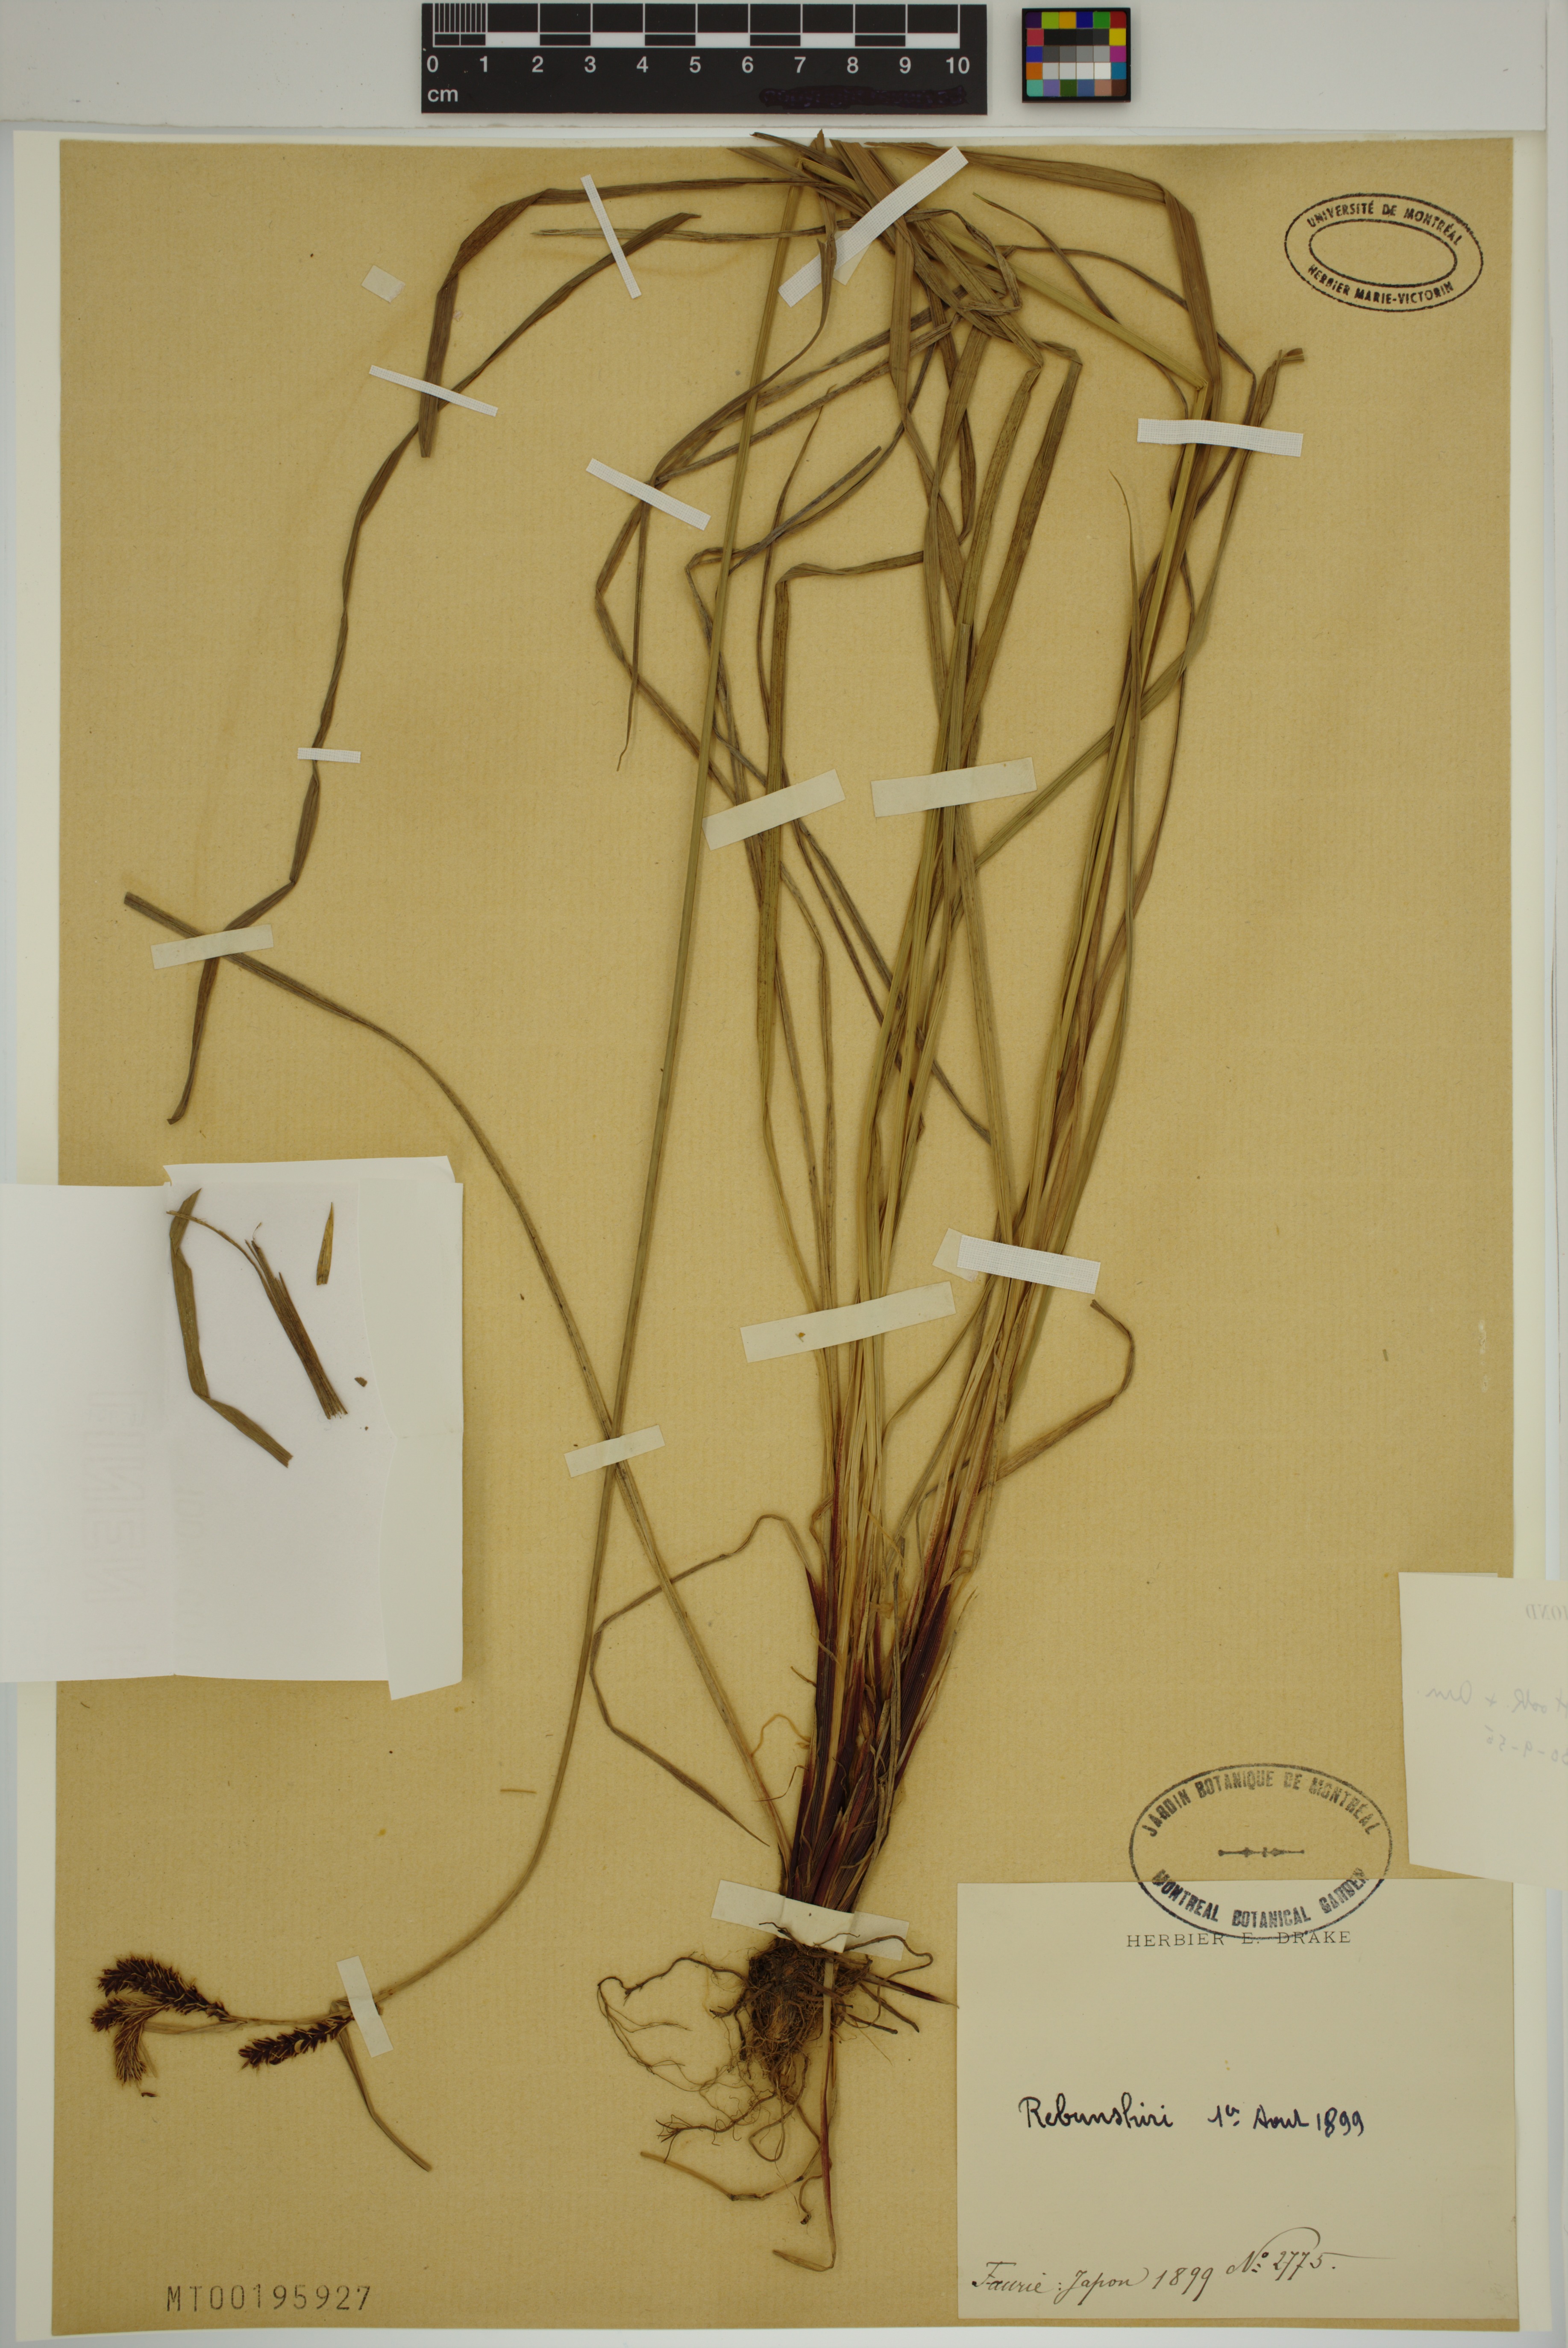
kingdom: Plantae
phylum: Tracheophyta
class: Liliopsida
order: Poales
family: Cyperaceae
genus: Carex
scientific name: Carex gmelinii
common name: Gmelin's sedge
